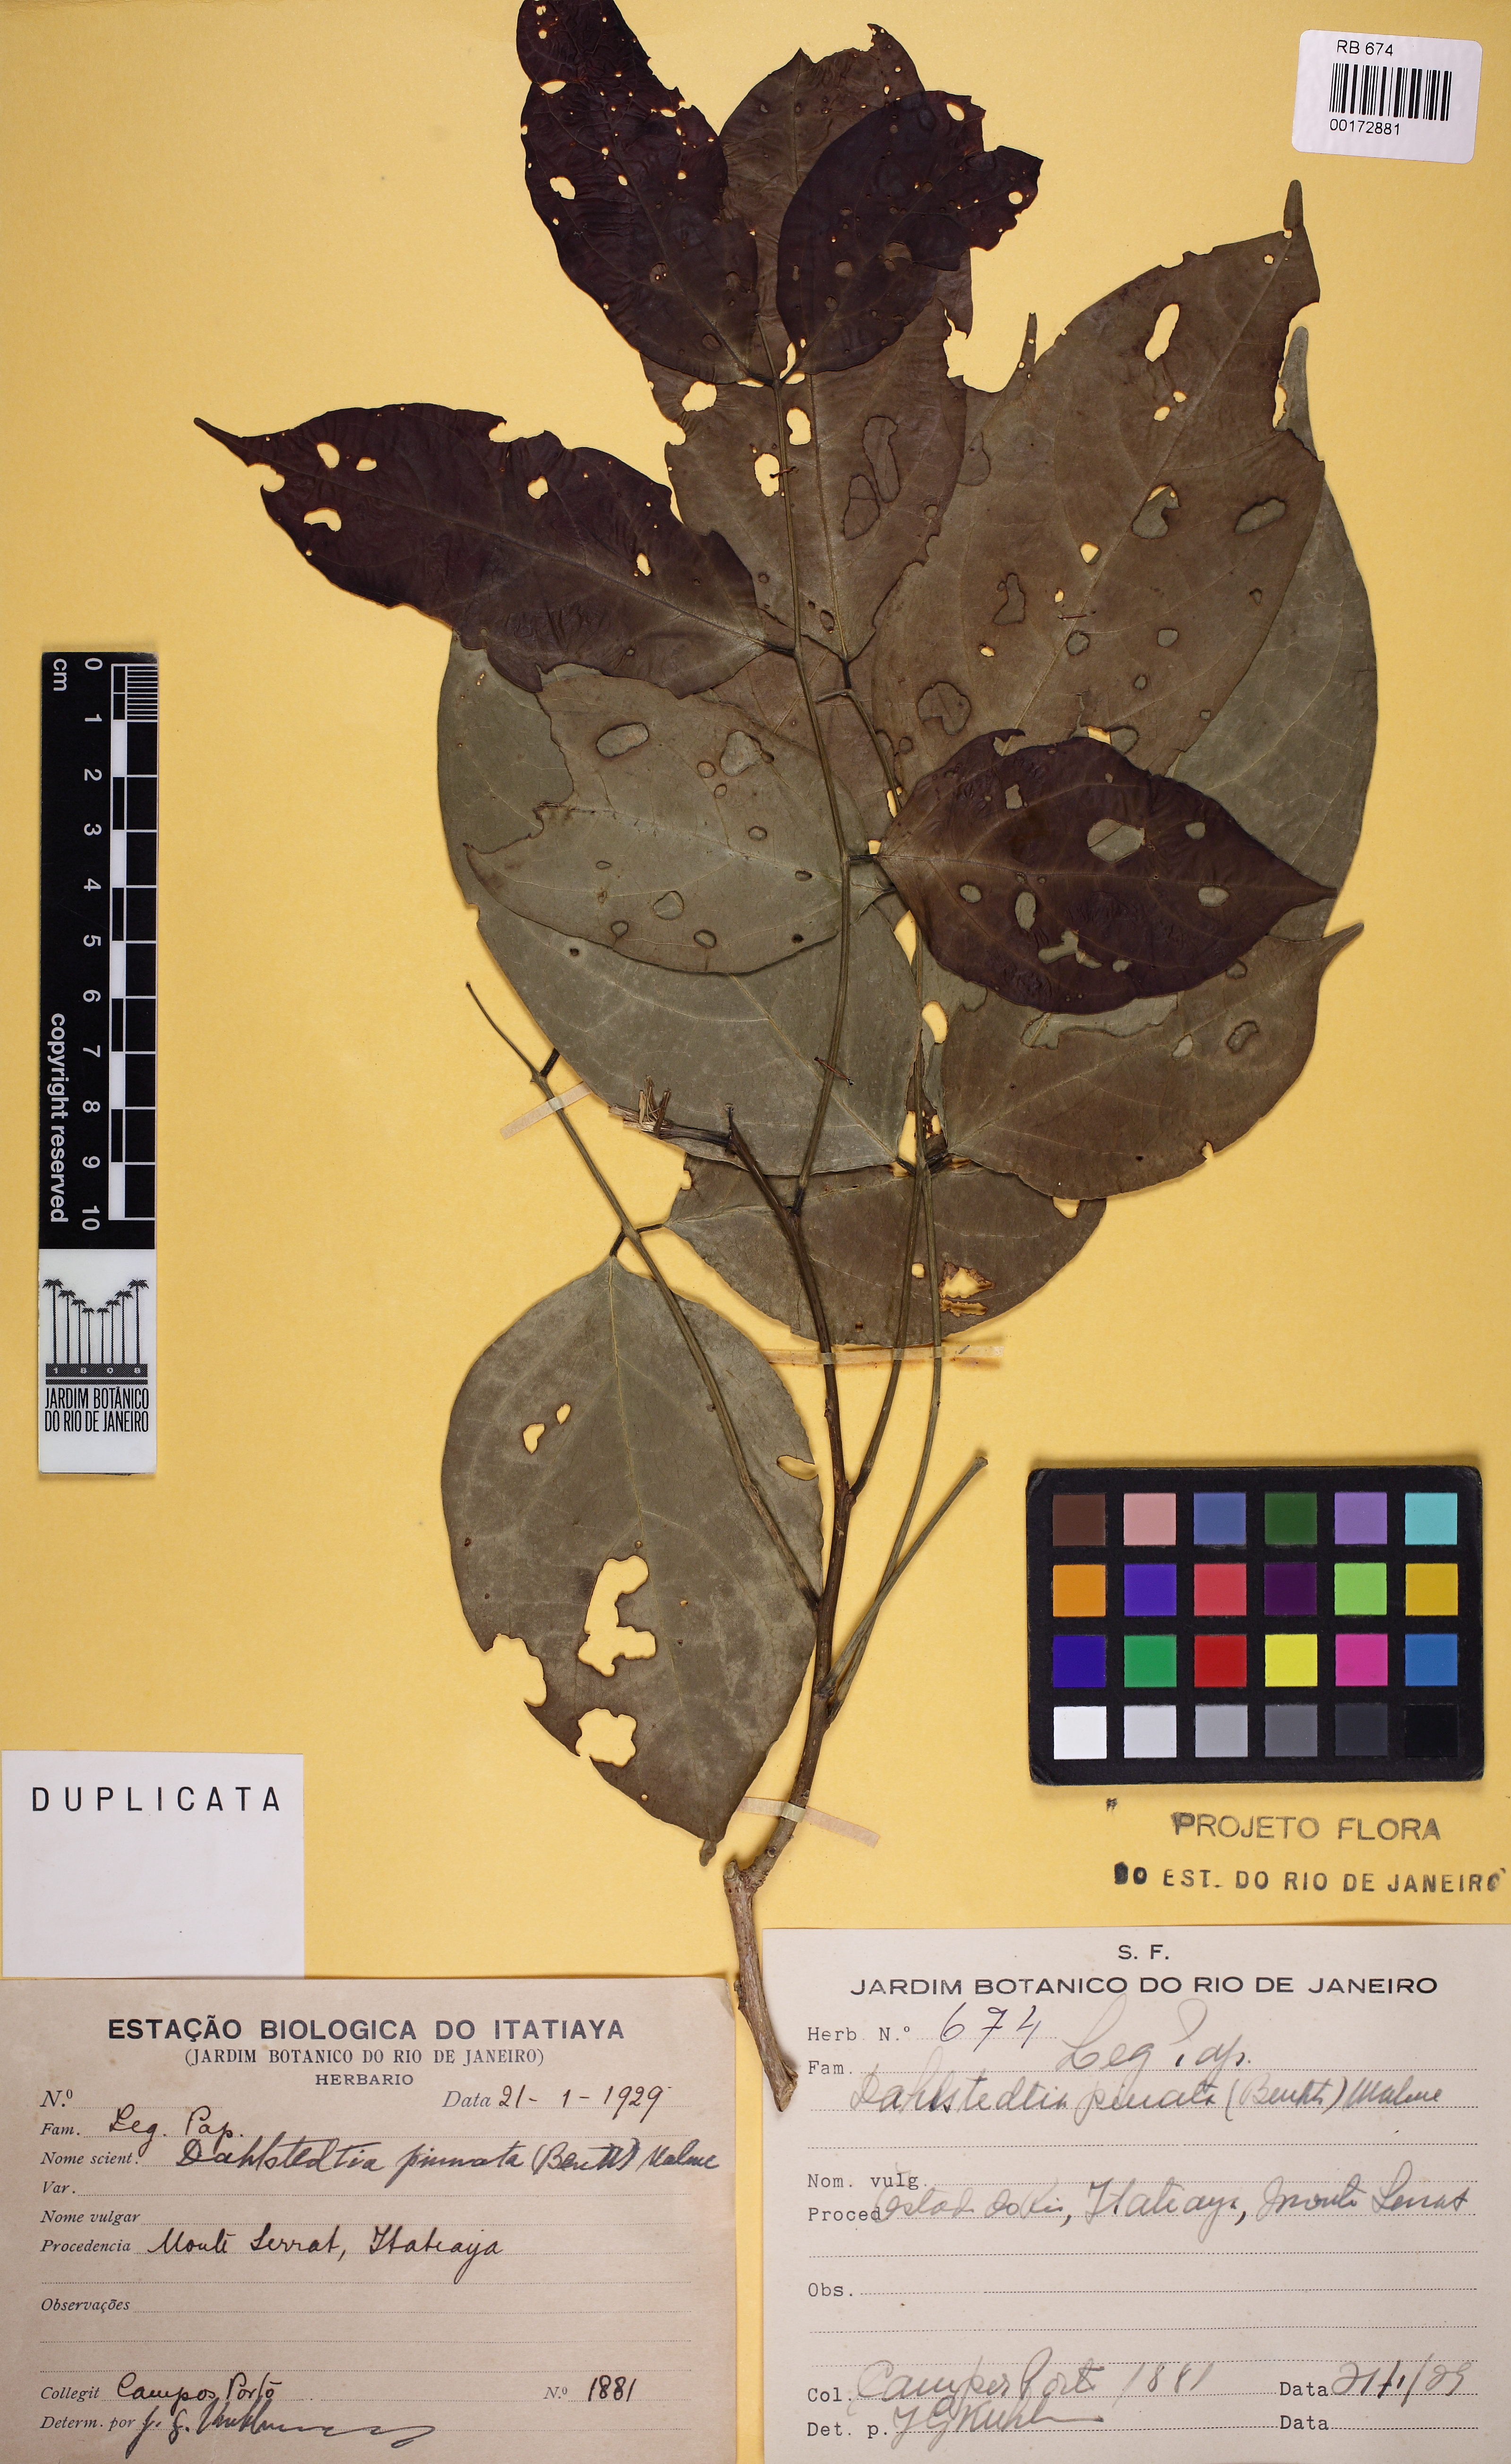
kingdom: Plantae
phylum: Tracheophyta
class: Magnoliopsida
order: Fabales
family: Fabaceae
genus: Dahlstedtia
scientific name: Dahlstedtia pinnata
